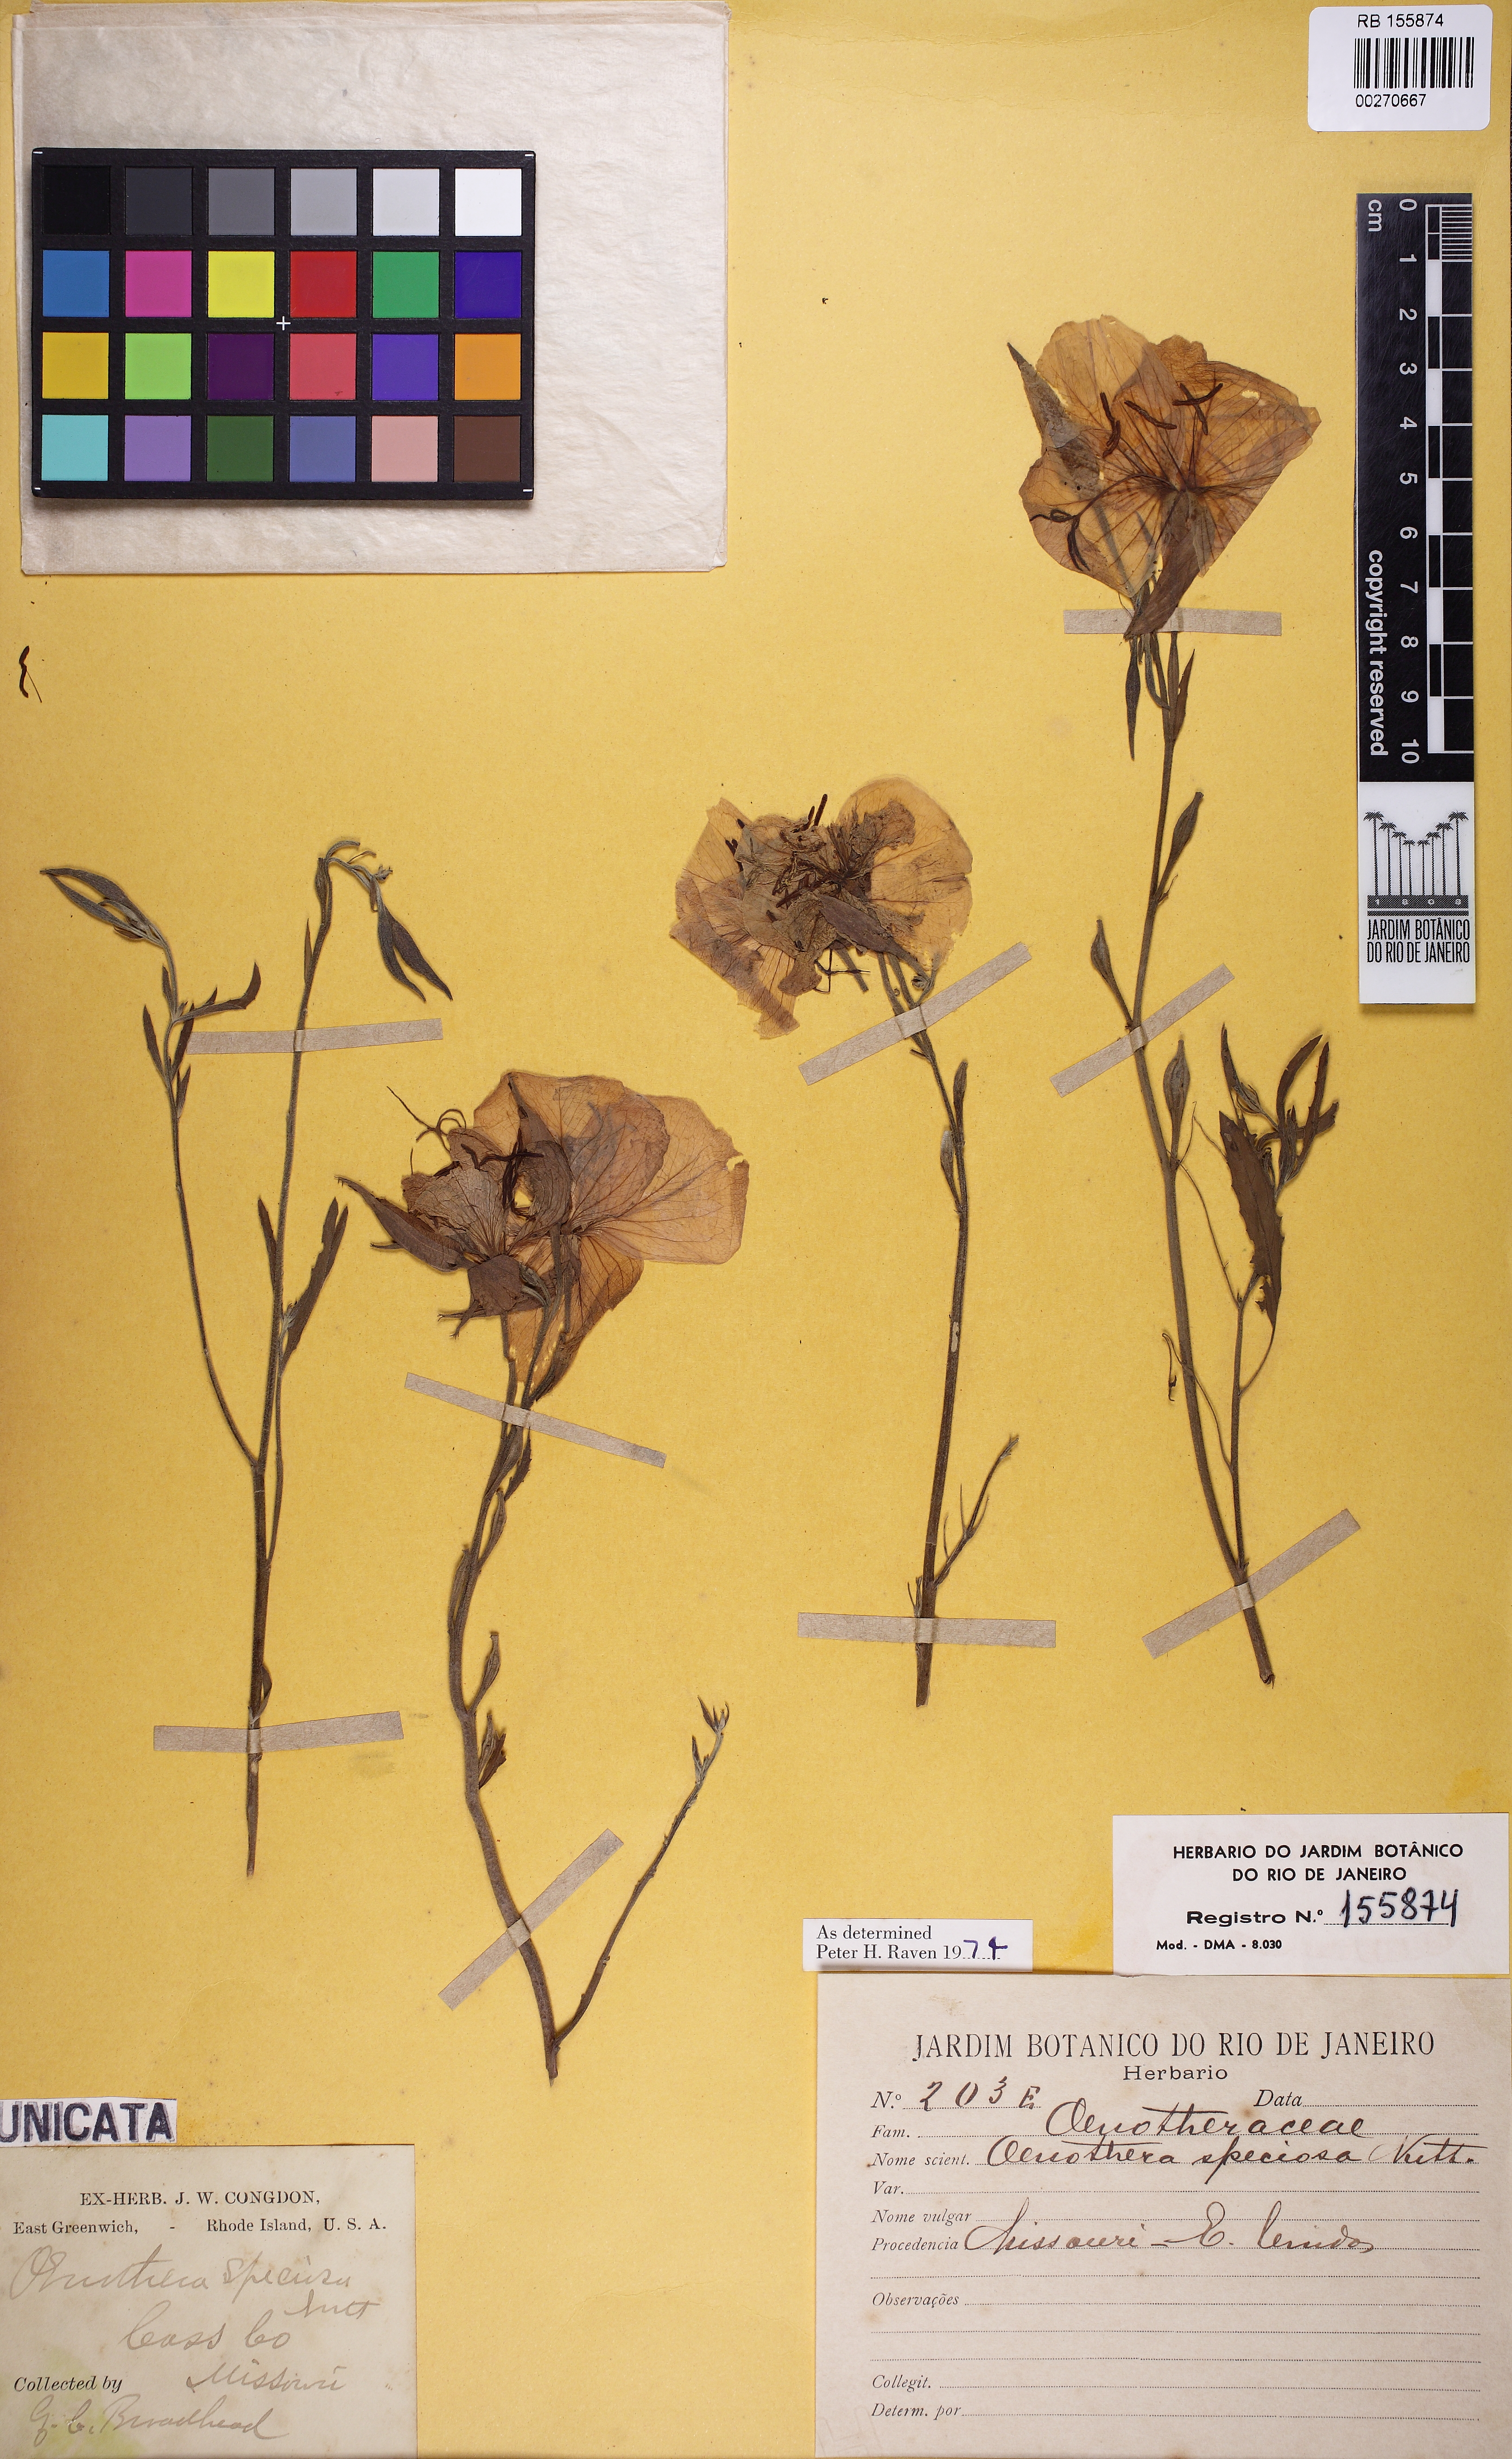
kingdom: Plantae
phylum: Tracheophyta
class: Magnoliopsida
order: Myrtales
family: Onagraceae
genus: Oenothera
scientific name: Oenothera speciosa
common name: White evening-primrose
